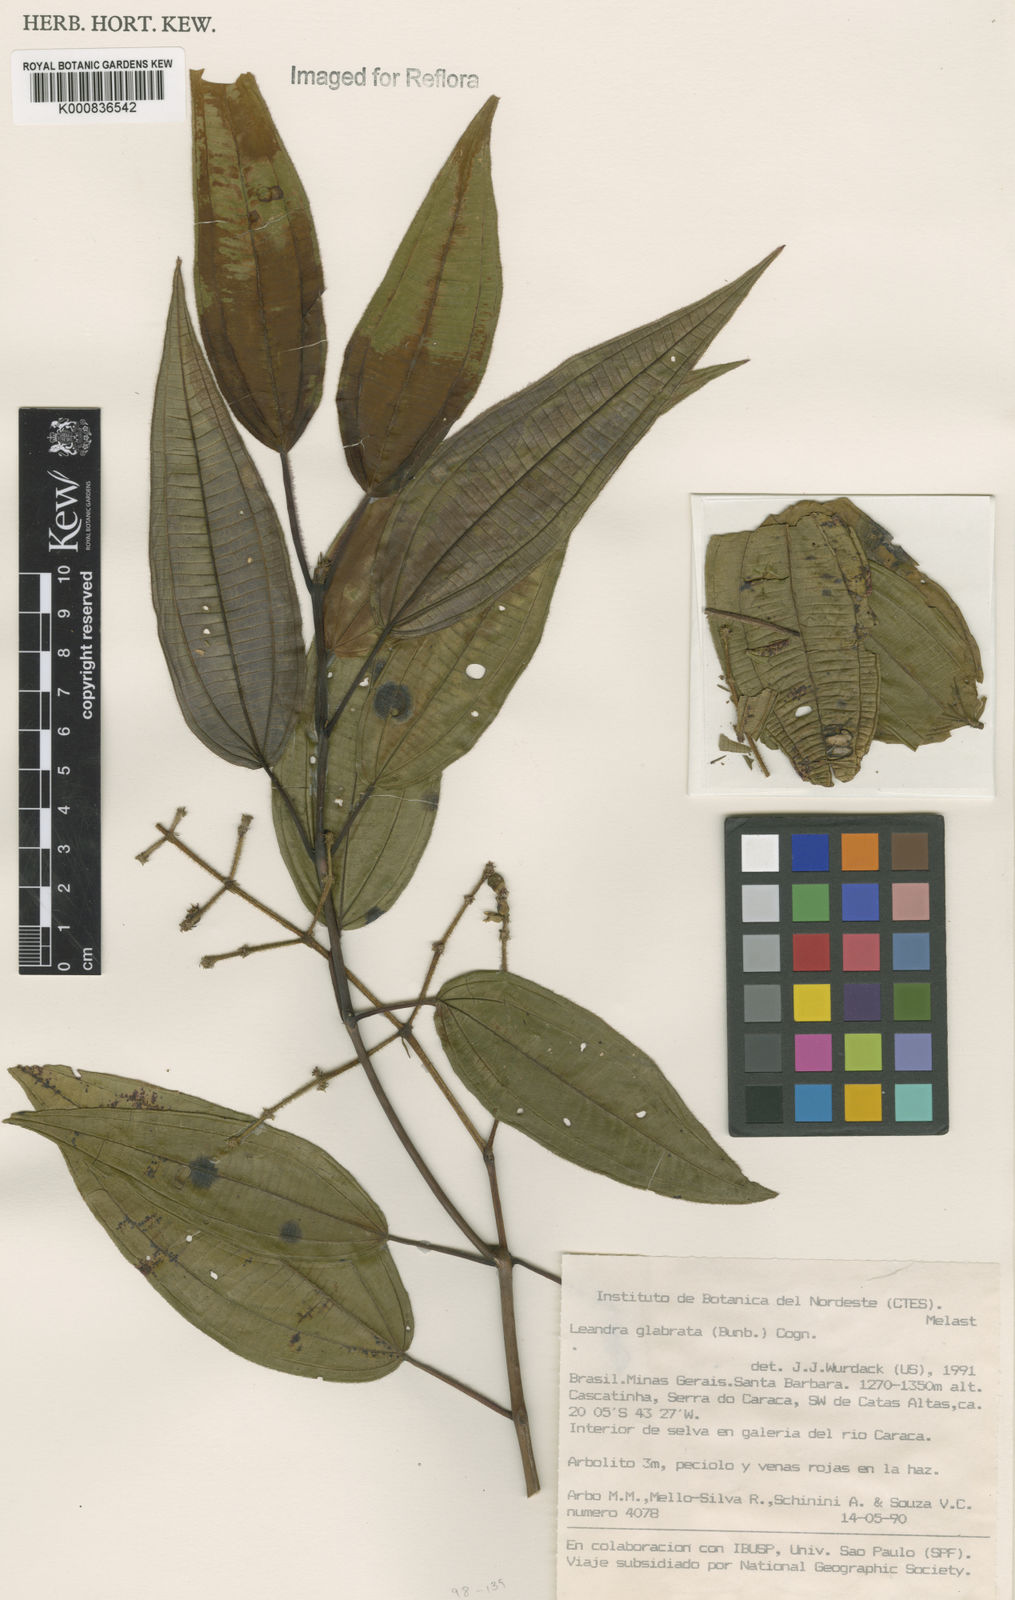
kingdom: Plantae
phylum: Tracheophyta
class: Magnoliopsida
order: Myrtales
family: Melastomataceae
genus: Miconia
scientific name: Miconia dolichostachya
